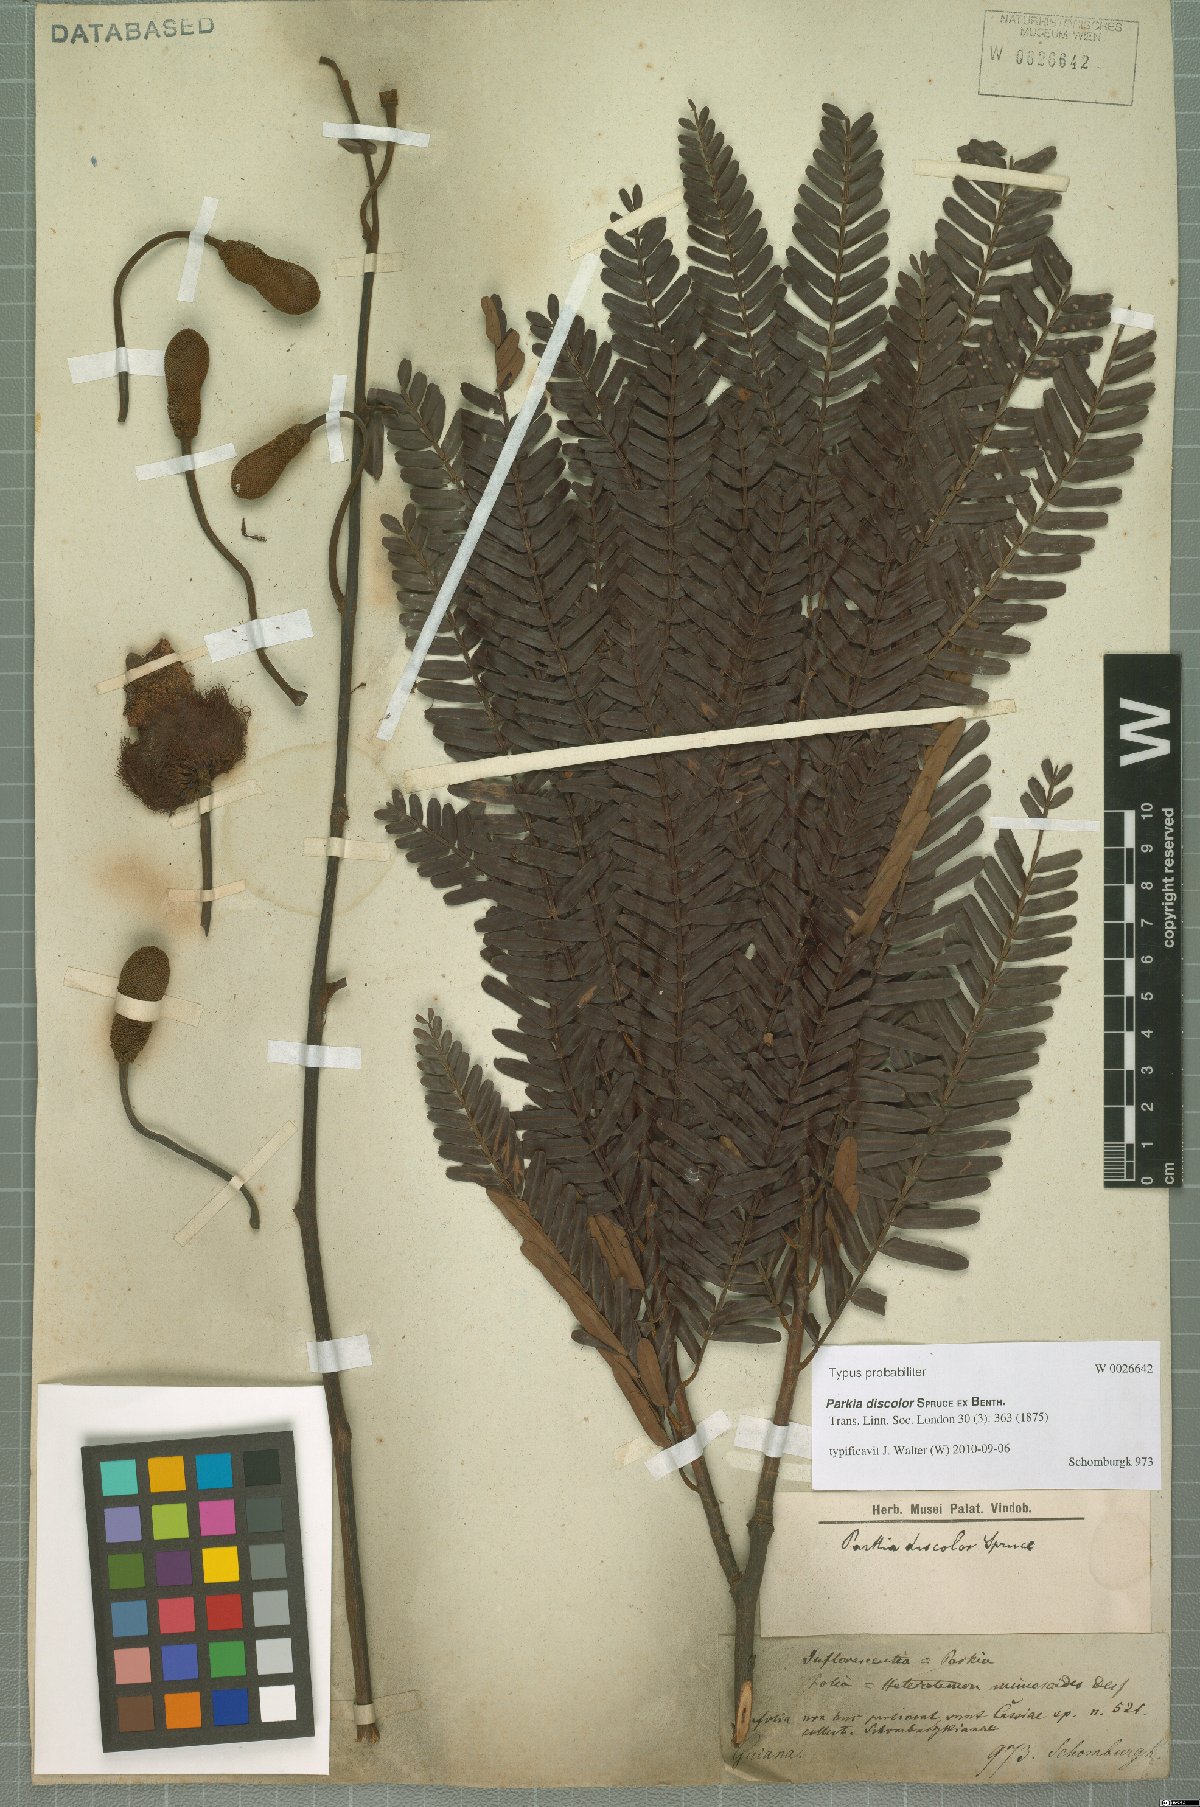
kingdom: Plantae
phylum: Tracheophyta
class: Magnoliopsida
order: Fabales
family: Fabaceae
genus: Parkia
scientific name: Parkia discolor
